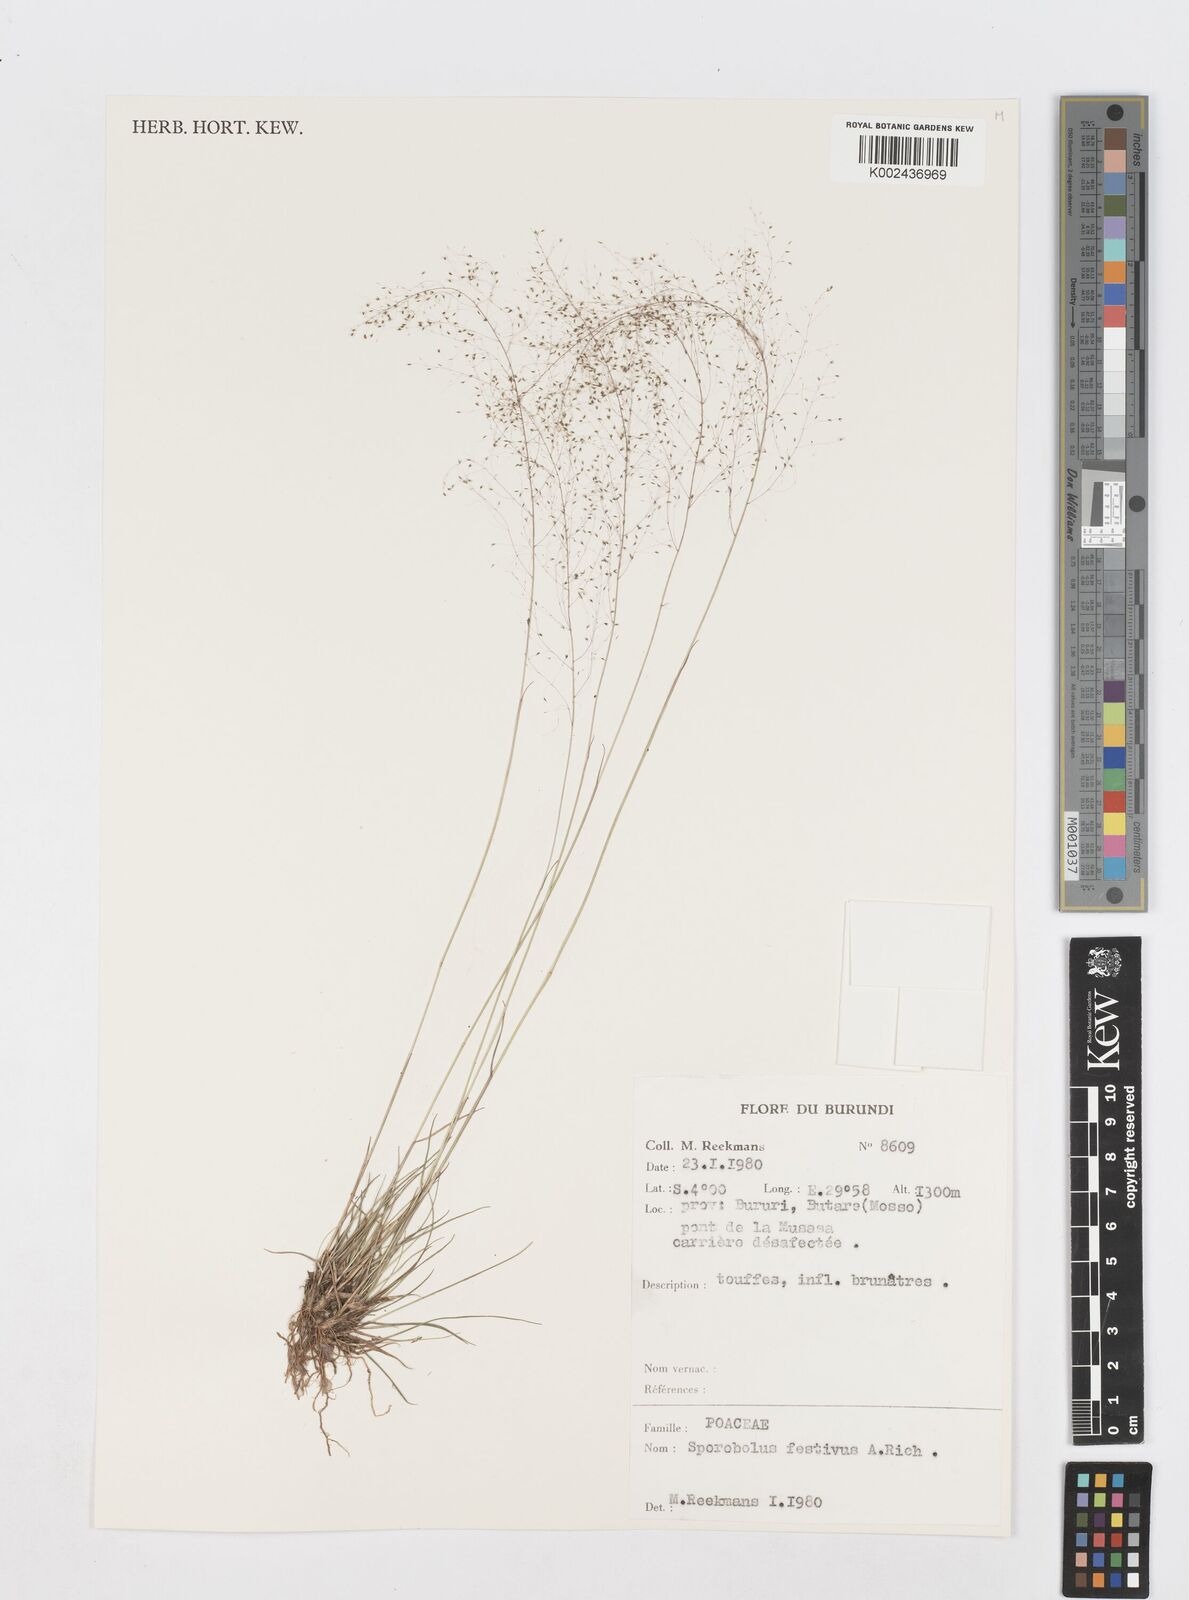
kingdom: Plantae
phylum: Tracheophyta
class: Liliopsida
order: Poales
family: Poaceae
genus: Sporobolus
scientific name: Sporobolus festivus
